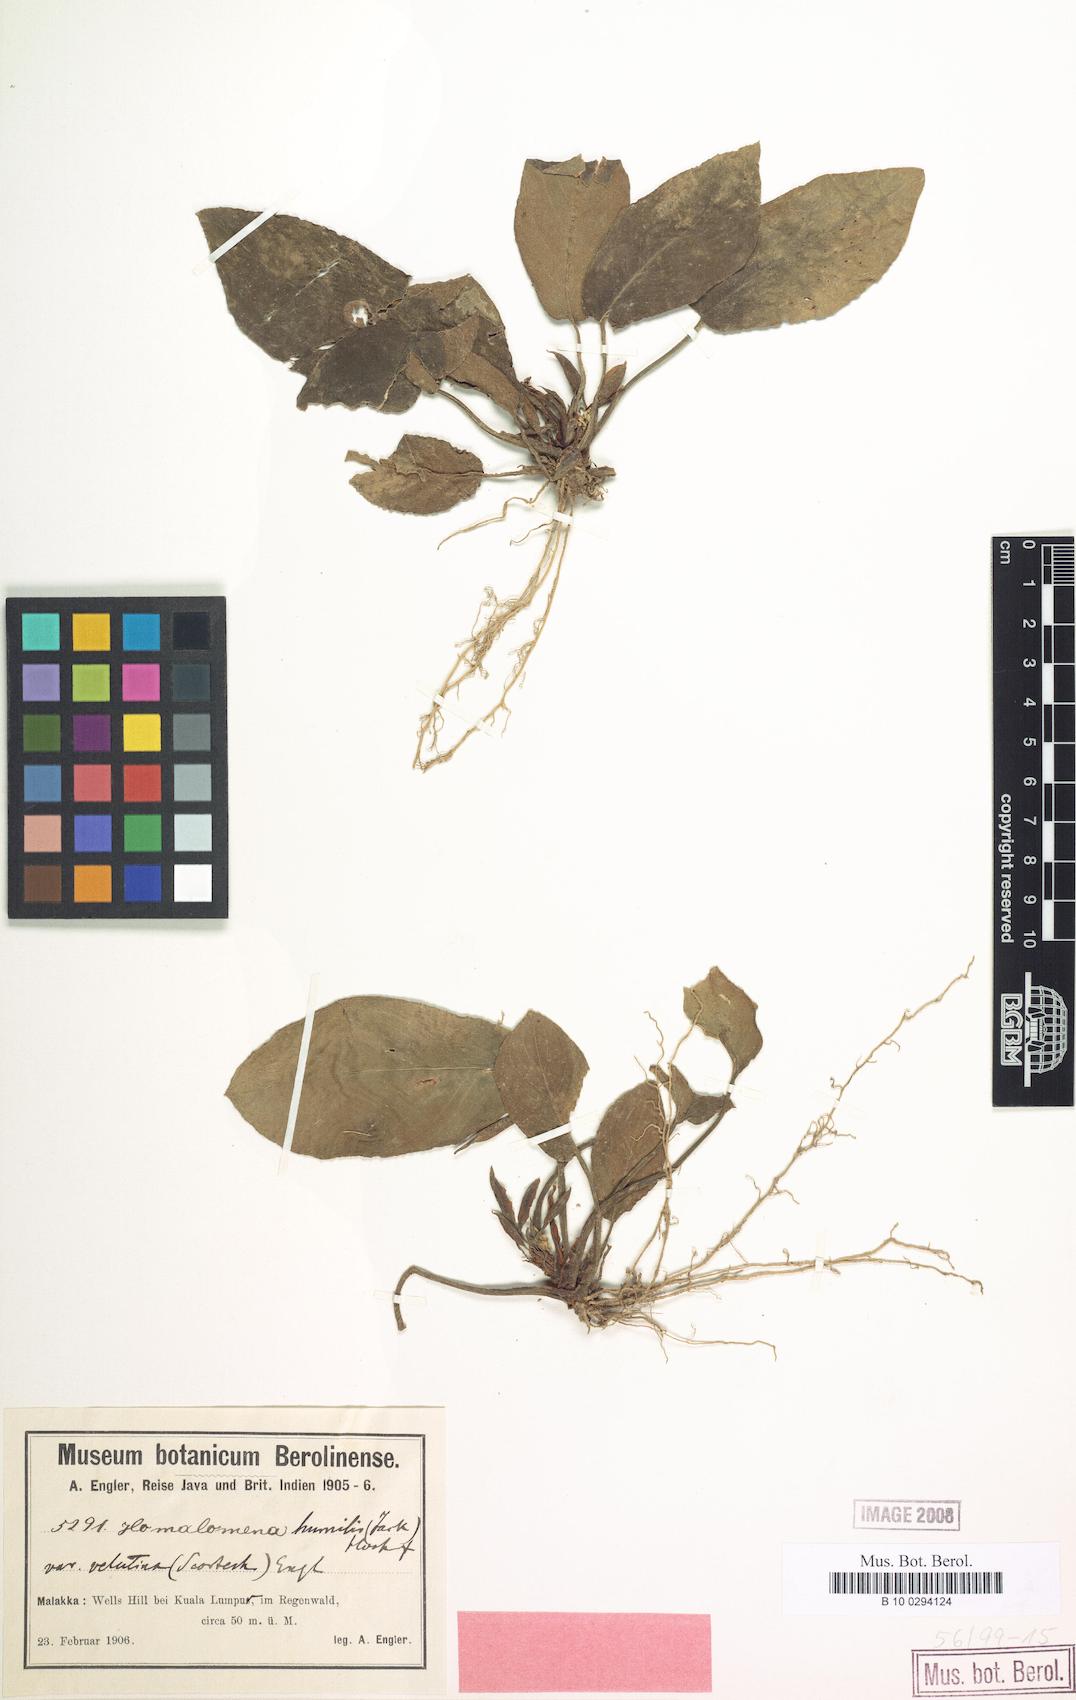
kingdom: Plantae
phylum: Tracheophyta
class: Liliopsida
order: Alismatales
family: Araceae
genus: Homalomena
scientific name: Homalomena humilis
